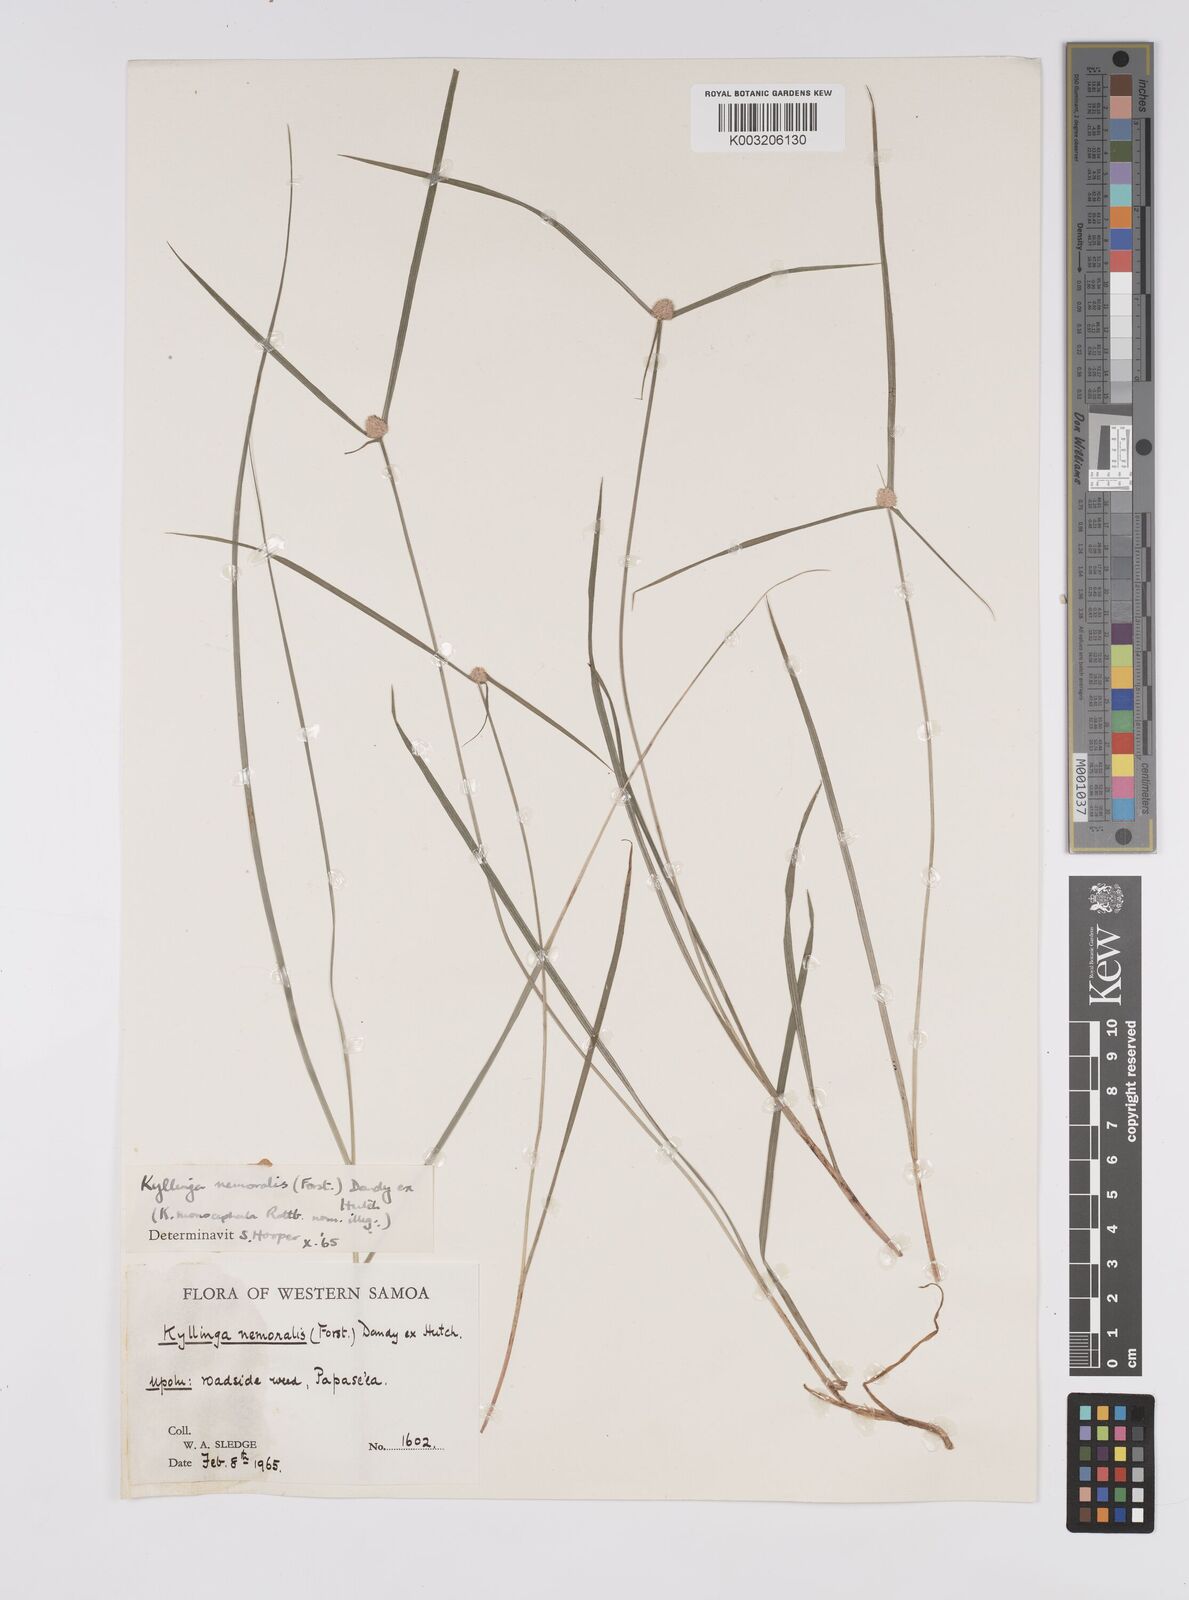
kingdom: Plantae
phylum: Tracheophyta
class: Liliopsida
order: Poales
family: Cyperaceae
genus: Cyperus
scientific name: Cyperus nemoralis
